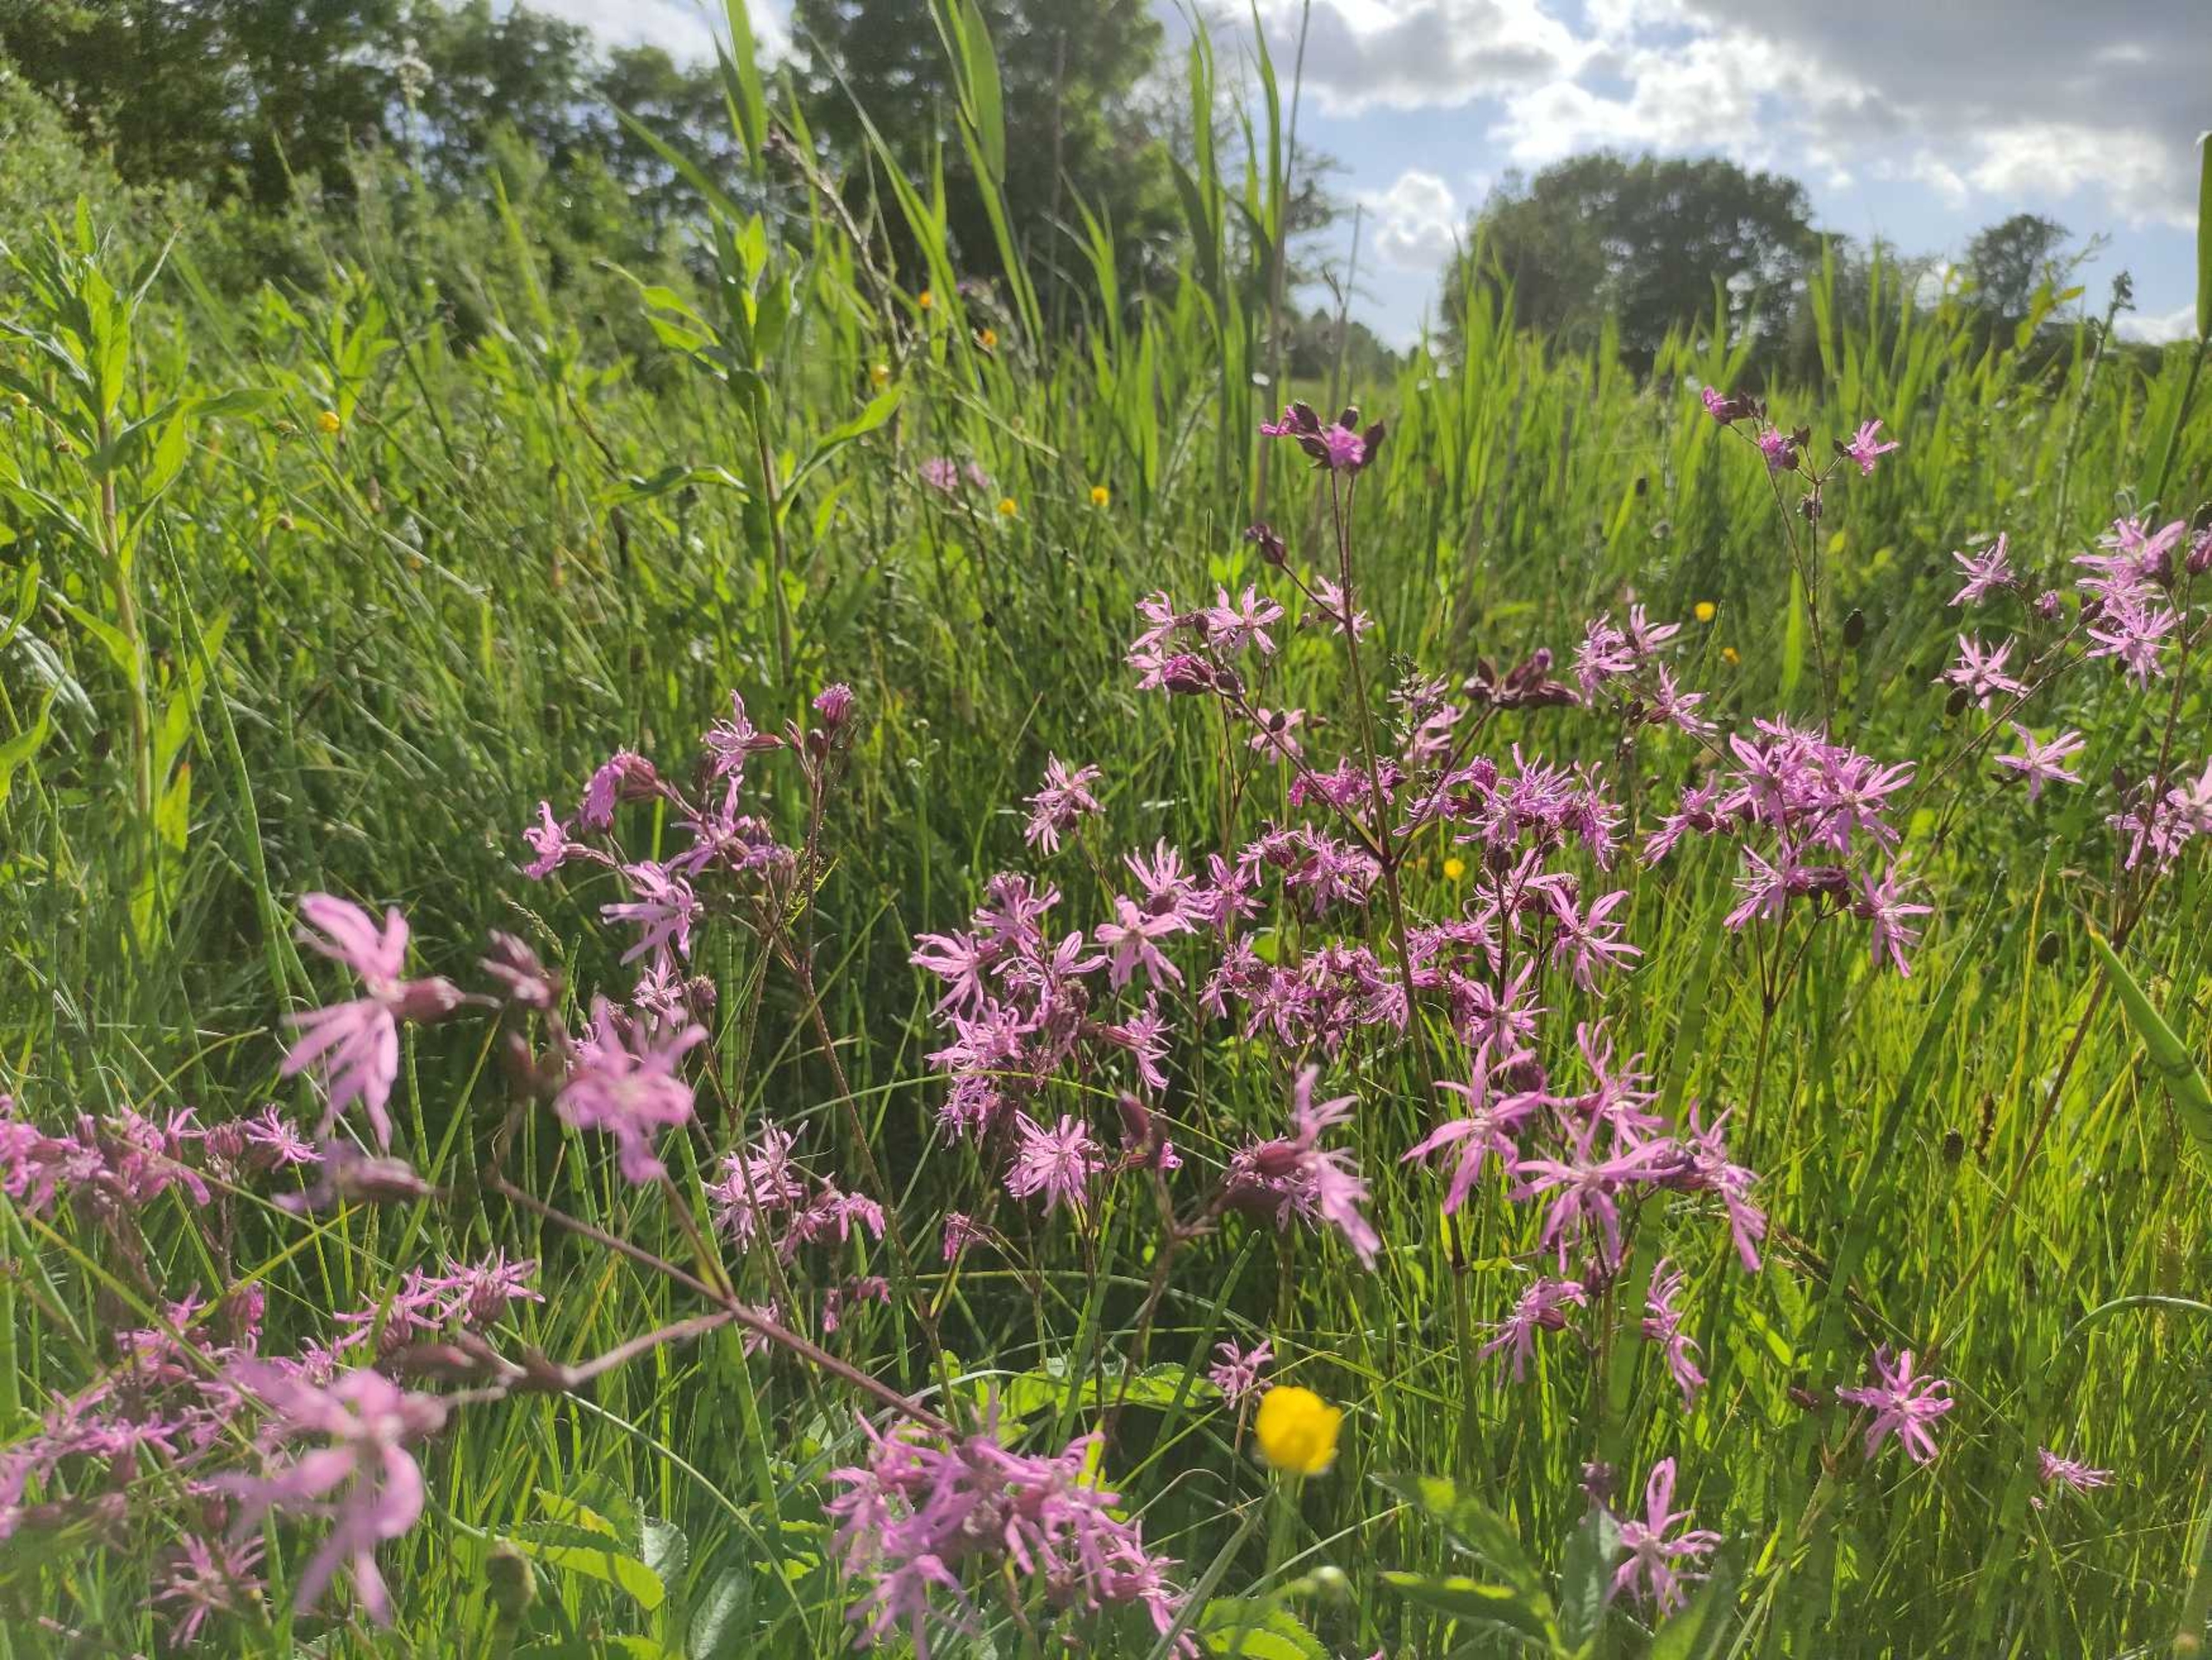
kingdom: Plantae
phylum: Tracheophyta
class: Magnoliopsida
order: Caryophyllales
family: Caryophyllaceae
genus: Silene
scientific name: Silene flos-cuculi
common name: Trævlekrone
